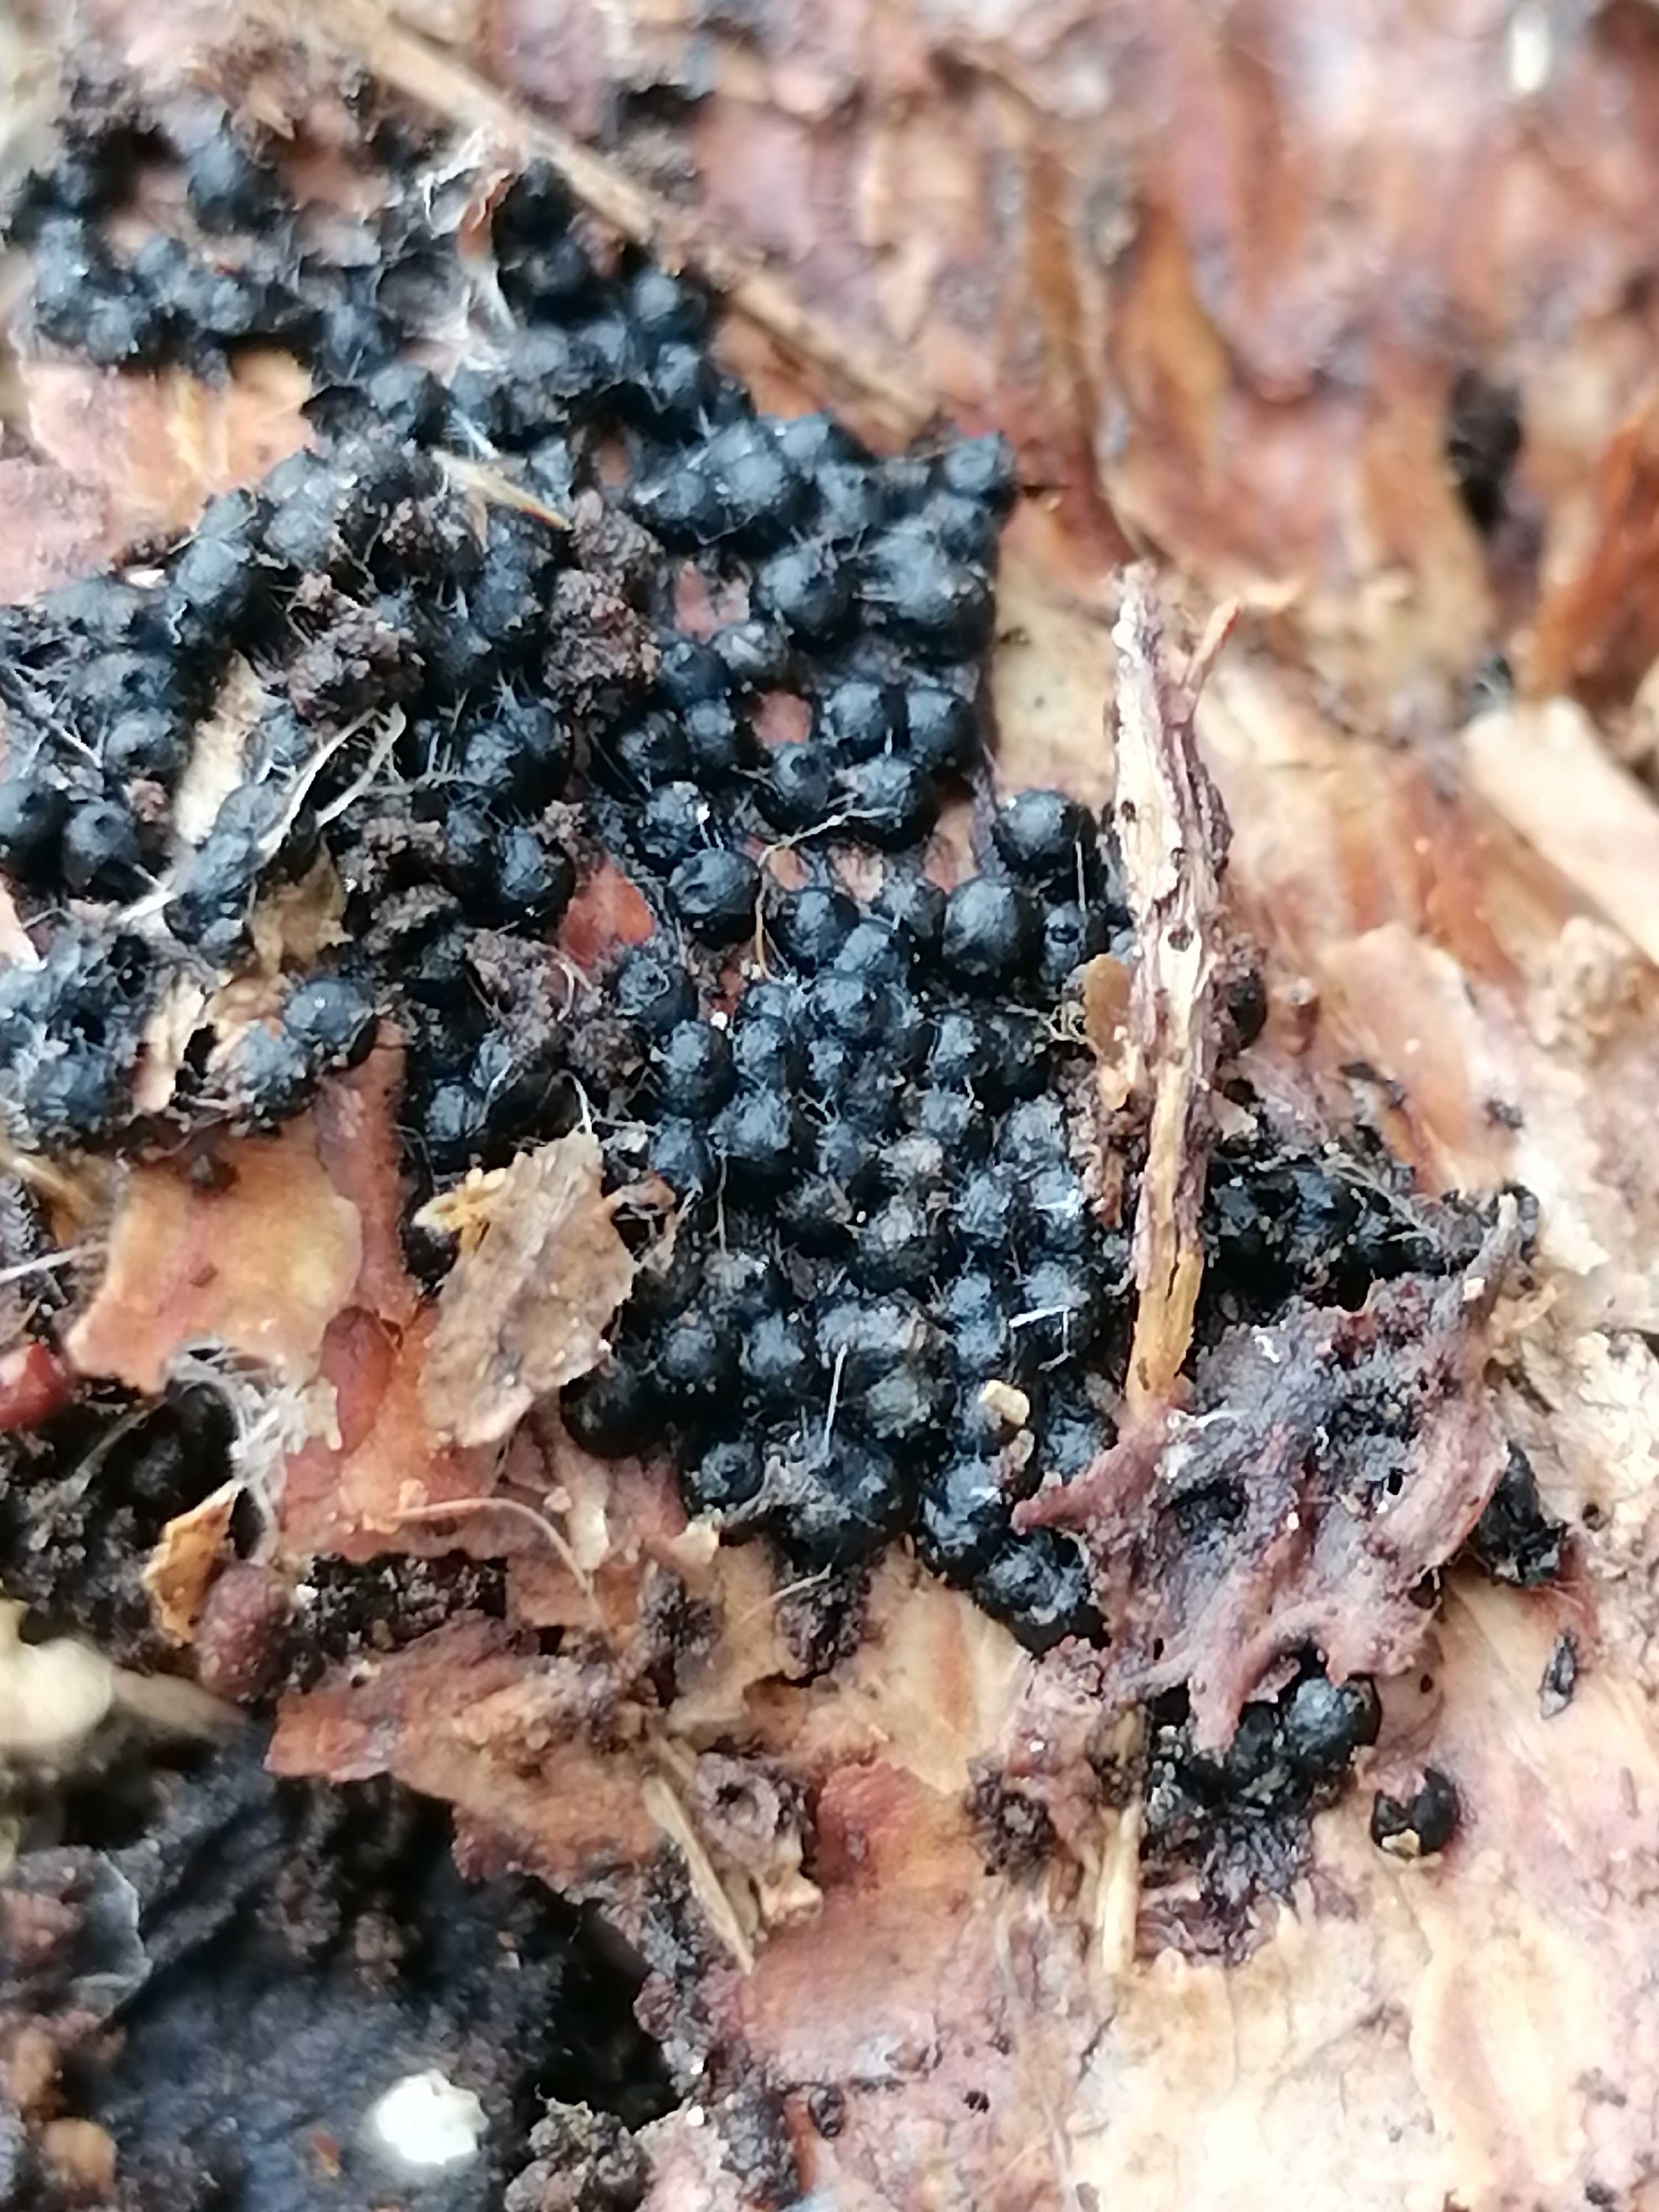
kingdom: Fungi
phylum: Ascomycota
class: Sordariomycetes
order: Xylariales
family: Xylariaceae
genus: Rosellinia
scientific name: Rosellinia
